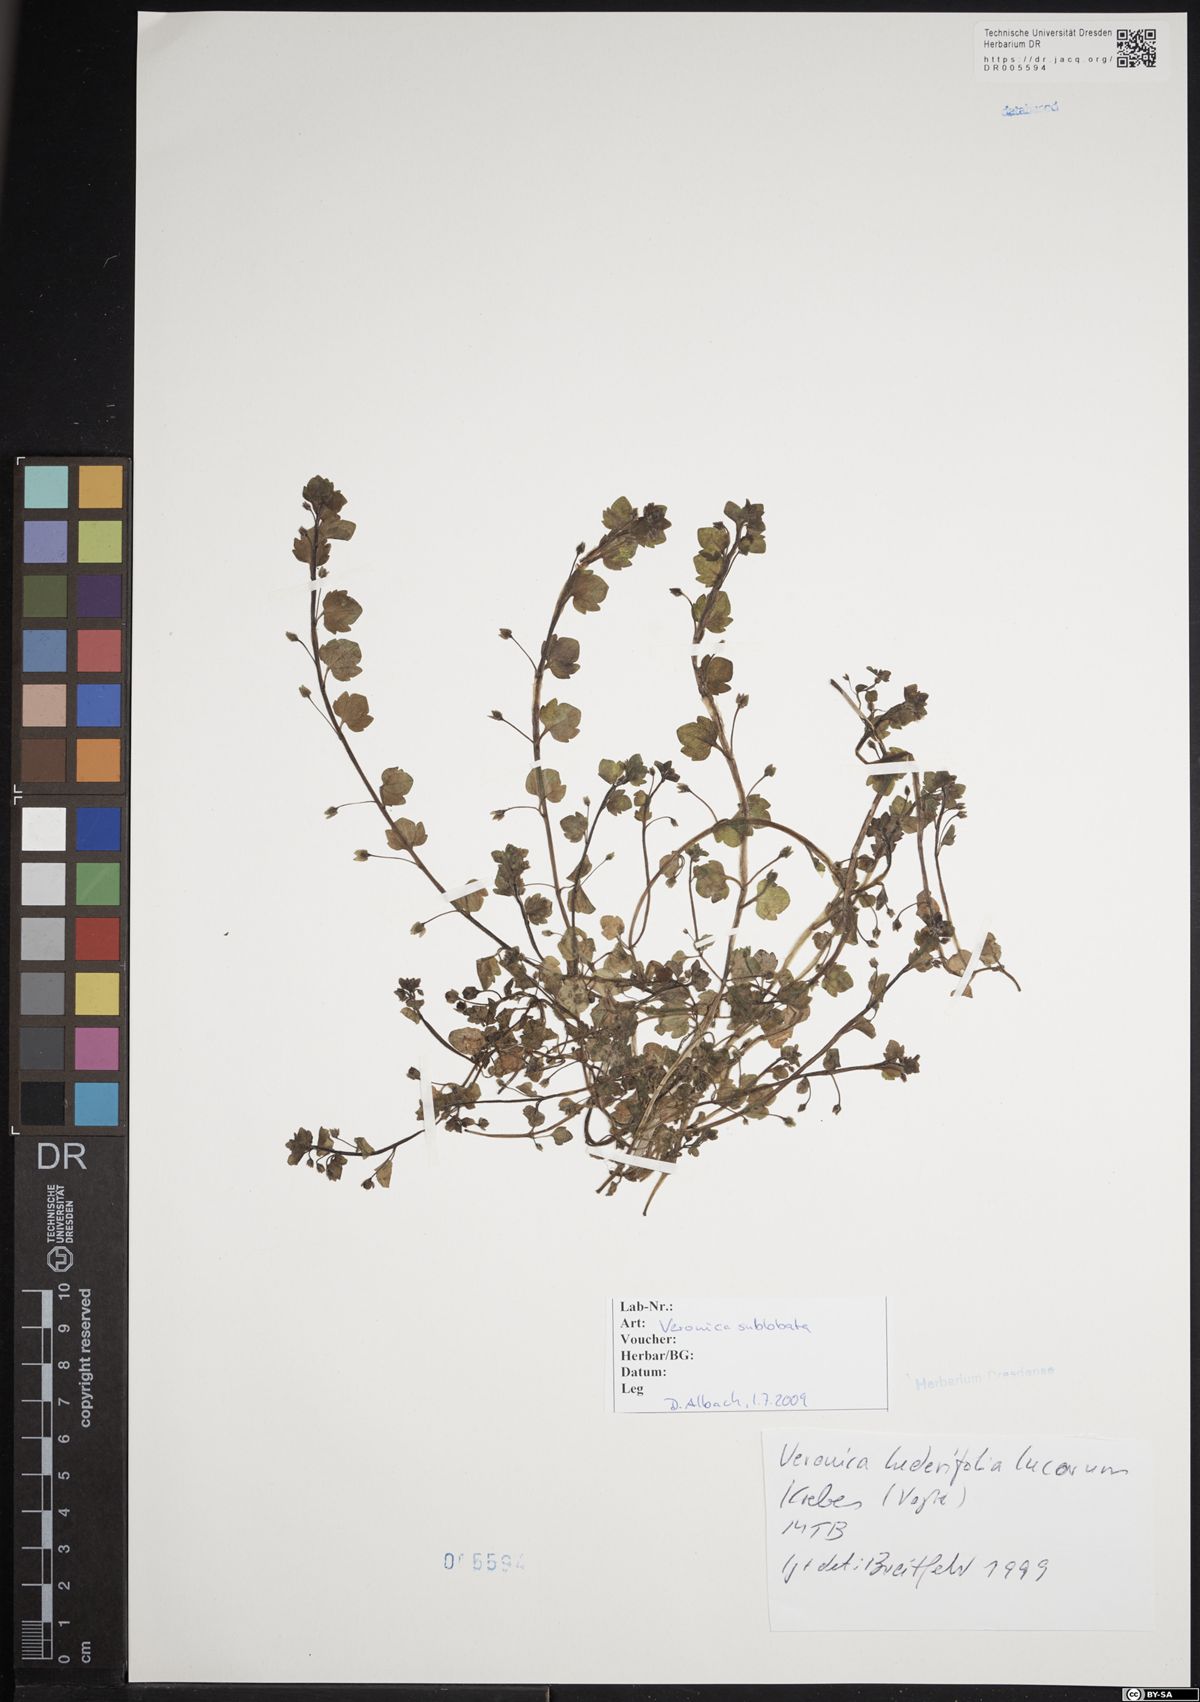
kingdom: Plantae
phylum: Tracheophyta
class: Magnoliopsida
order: Lamiales
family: Plantaginaceae
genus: Veronica
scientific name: Veronica sublobata
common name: False ivy-leaved speedwell
